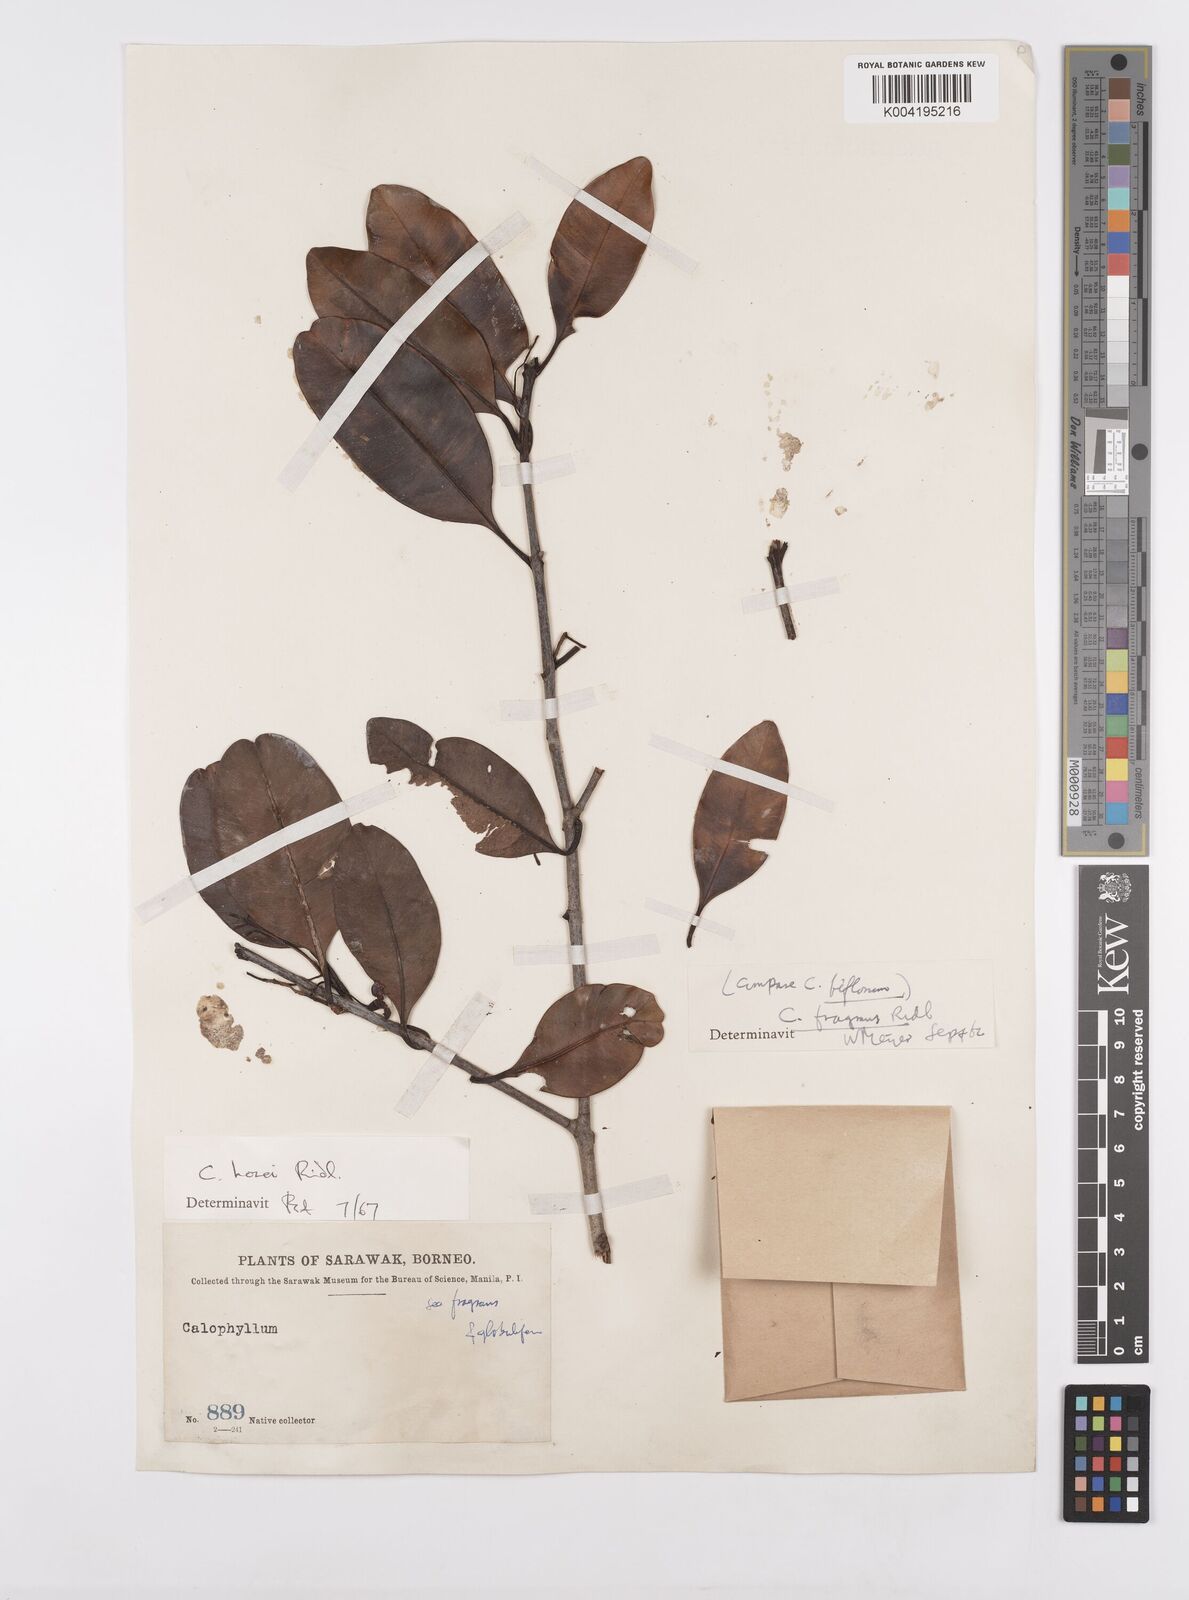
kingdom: Plantae
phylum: Tracheophyta
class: Magnoliopsida
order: Malpighiales
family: Calophyllaceae
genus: Calophyllum
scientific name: Calophyllum hosei
